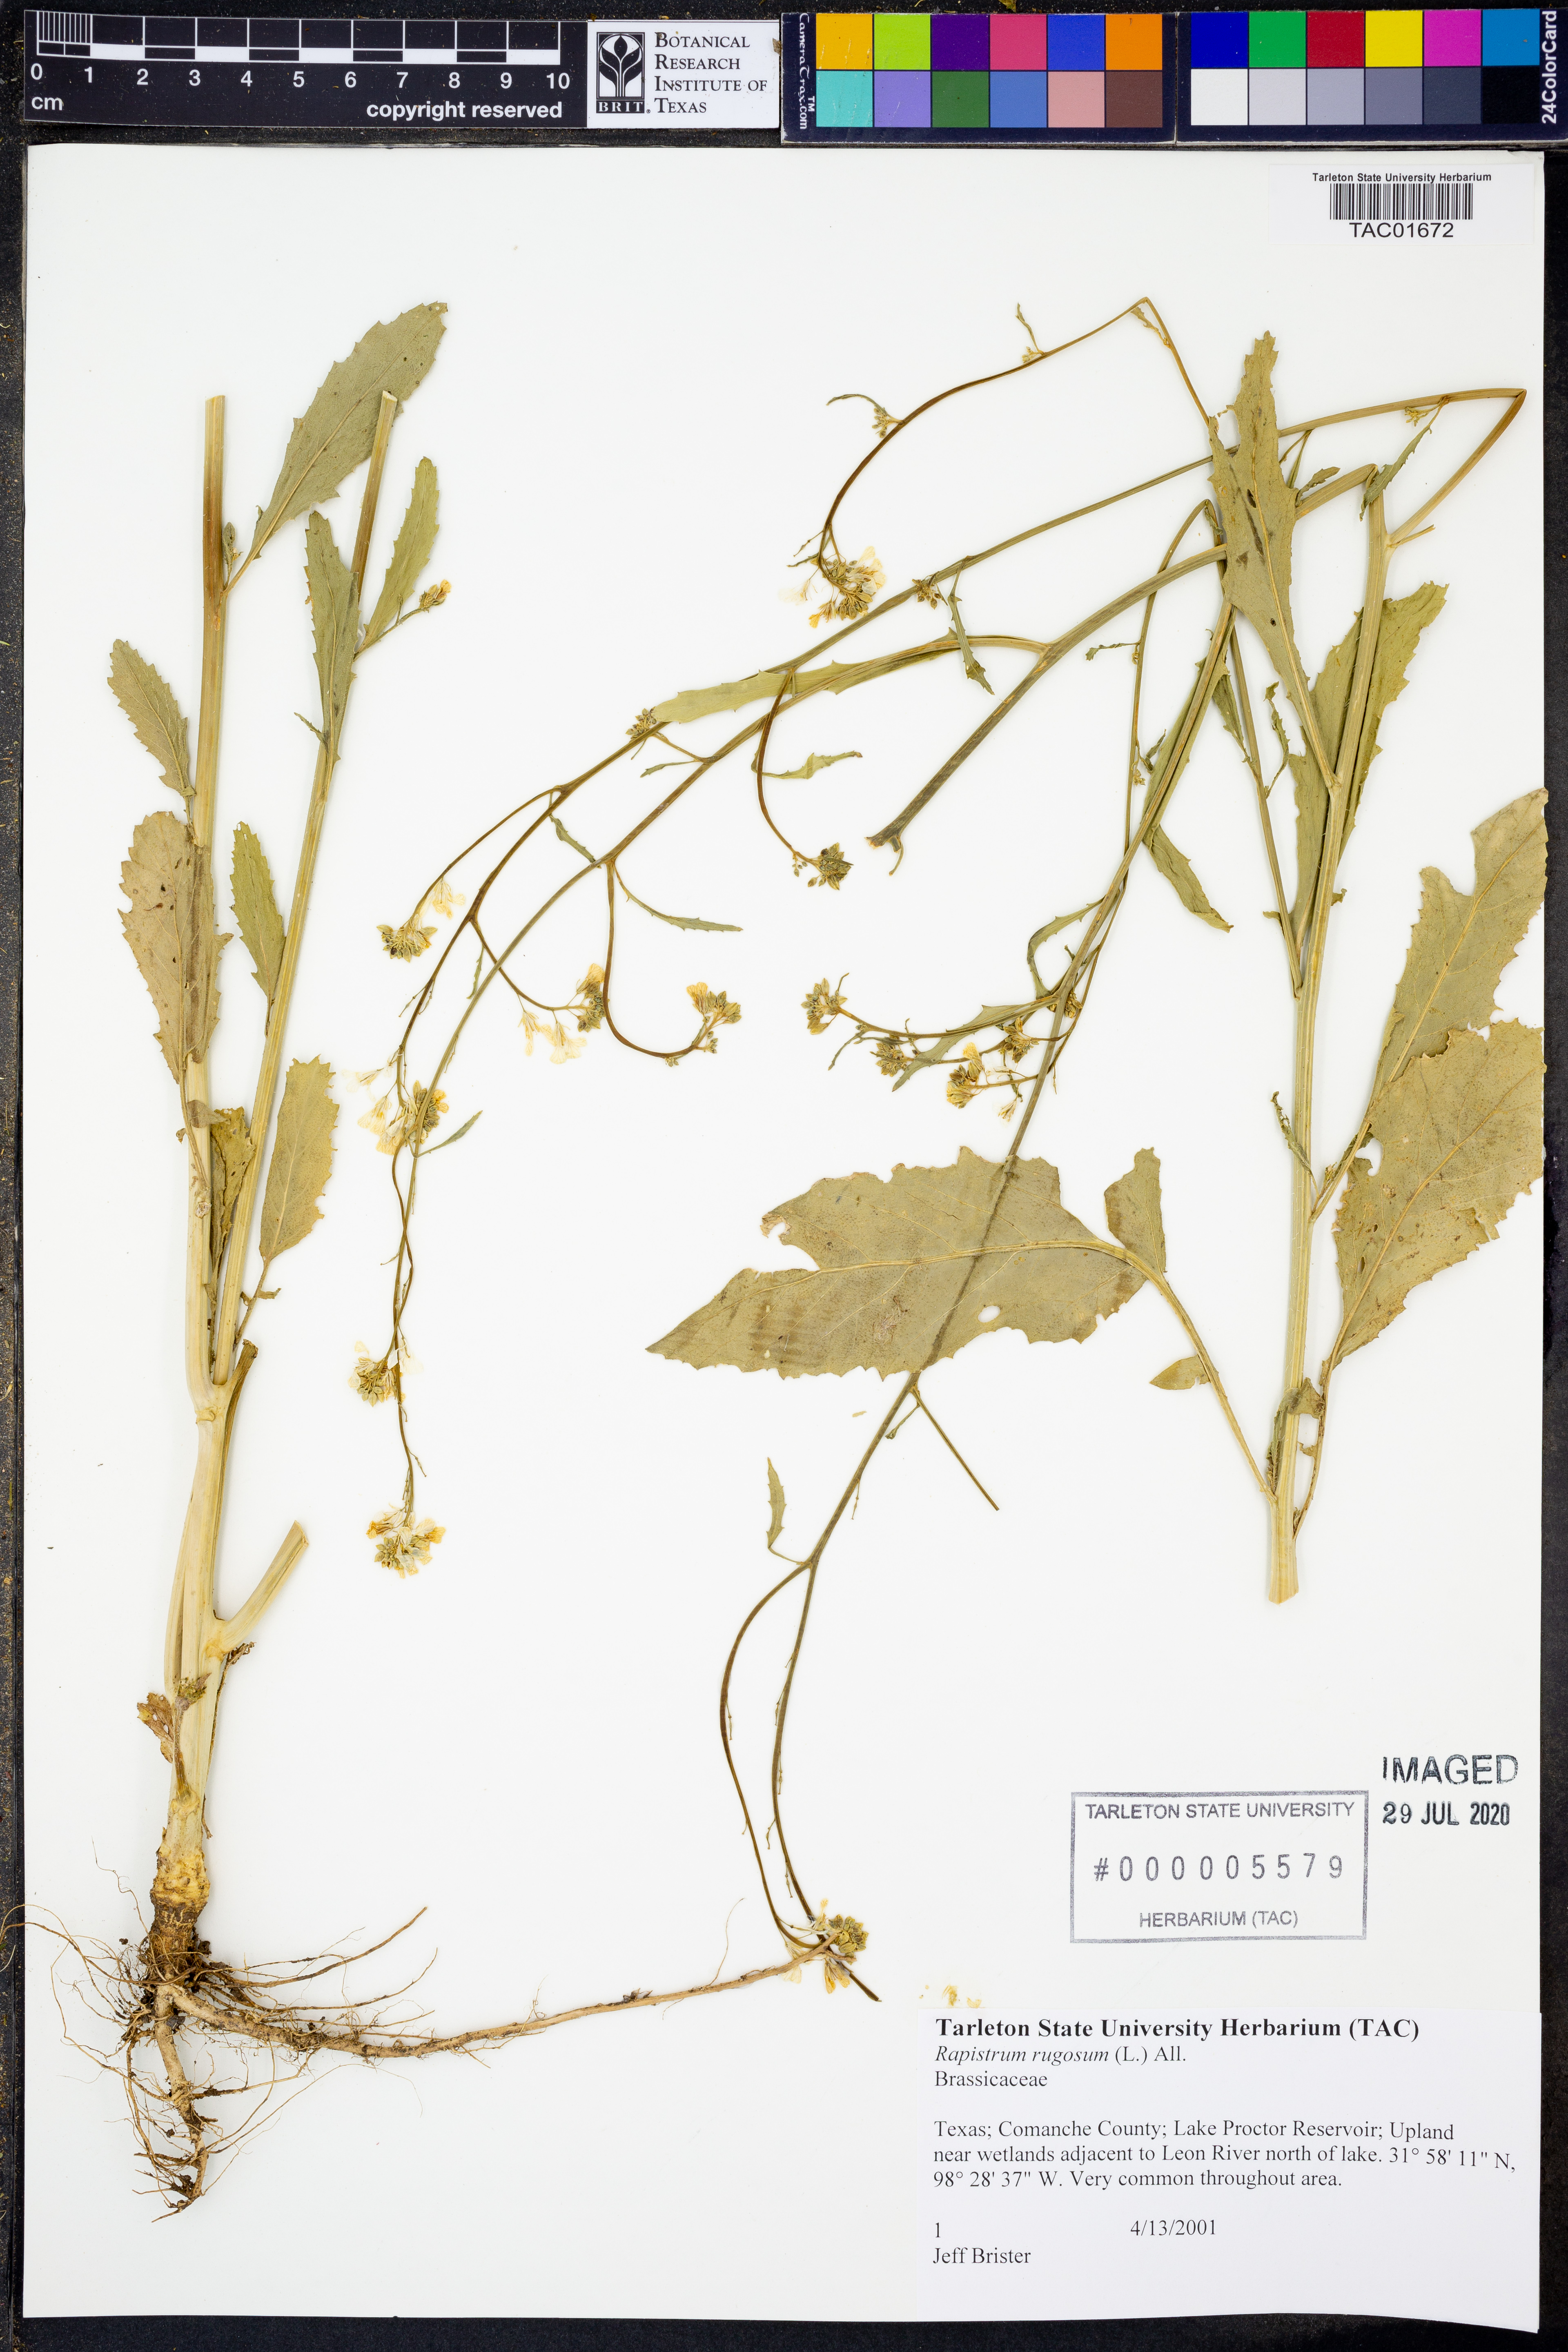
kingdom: Plantae
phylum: Tracheophyta
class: Magnoliopsida
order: Brassicales
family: Brassicaceae
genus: Rapistrum
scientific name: Rapistrum rugosum
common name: Annual bastardcabbage
